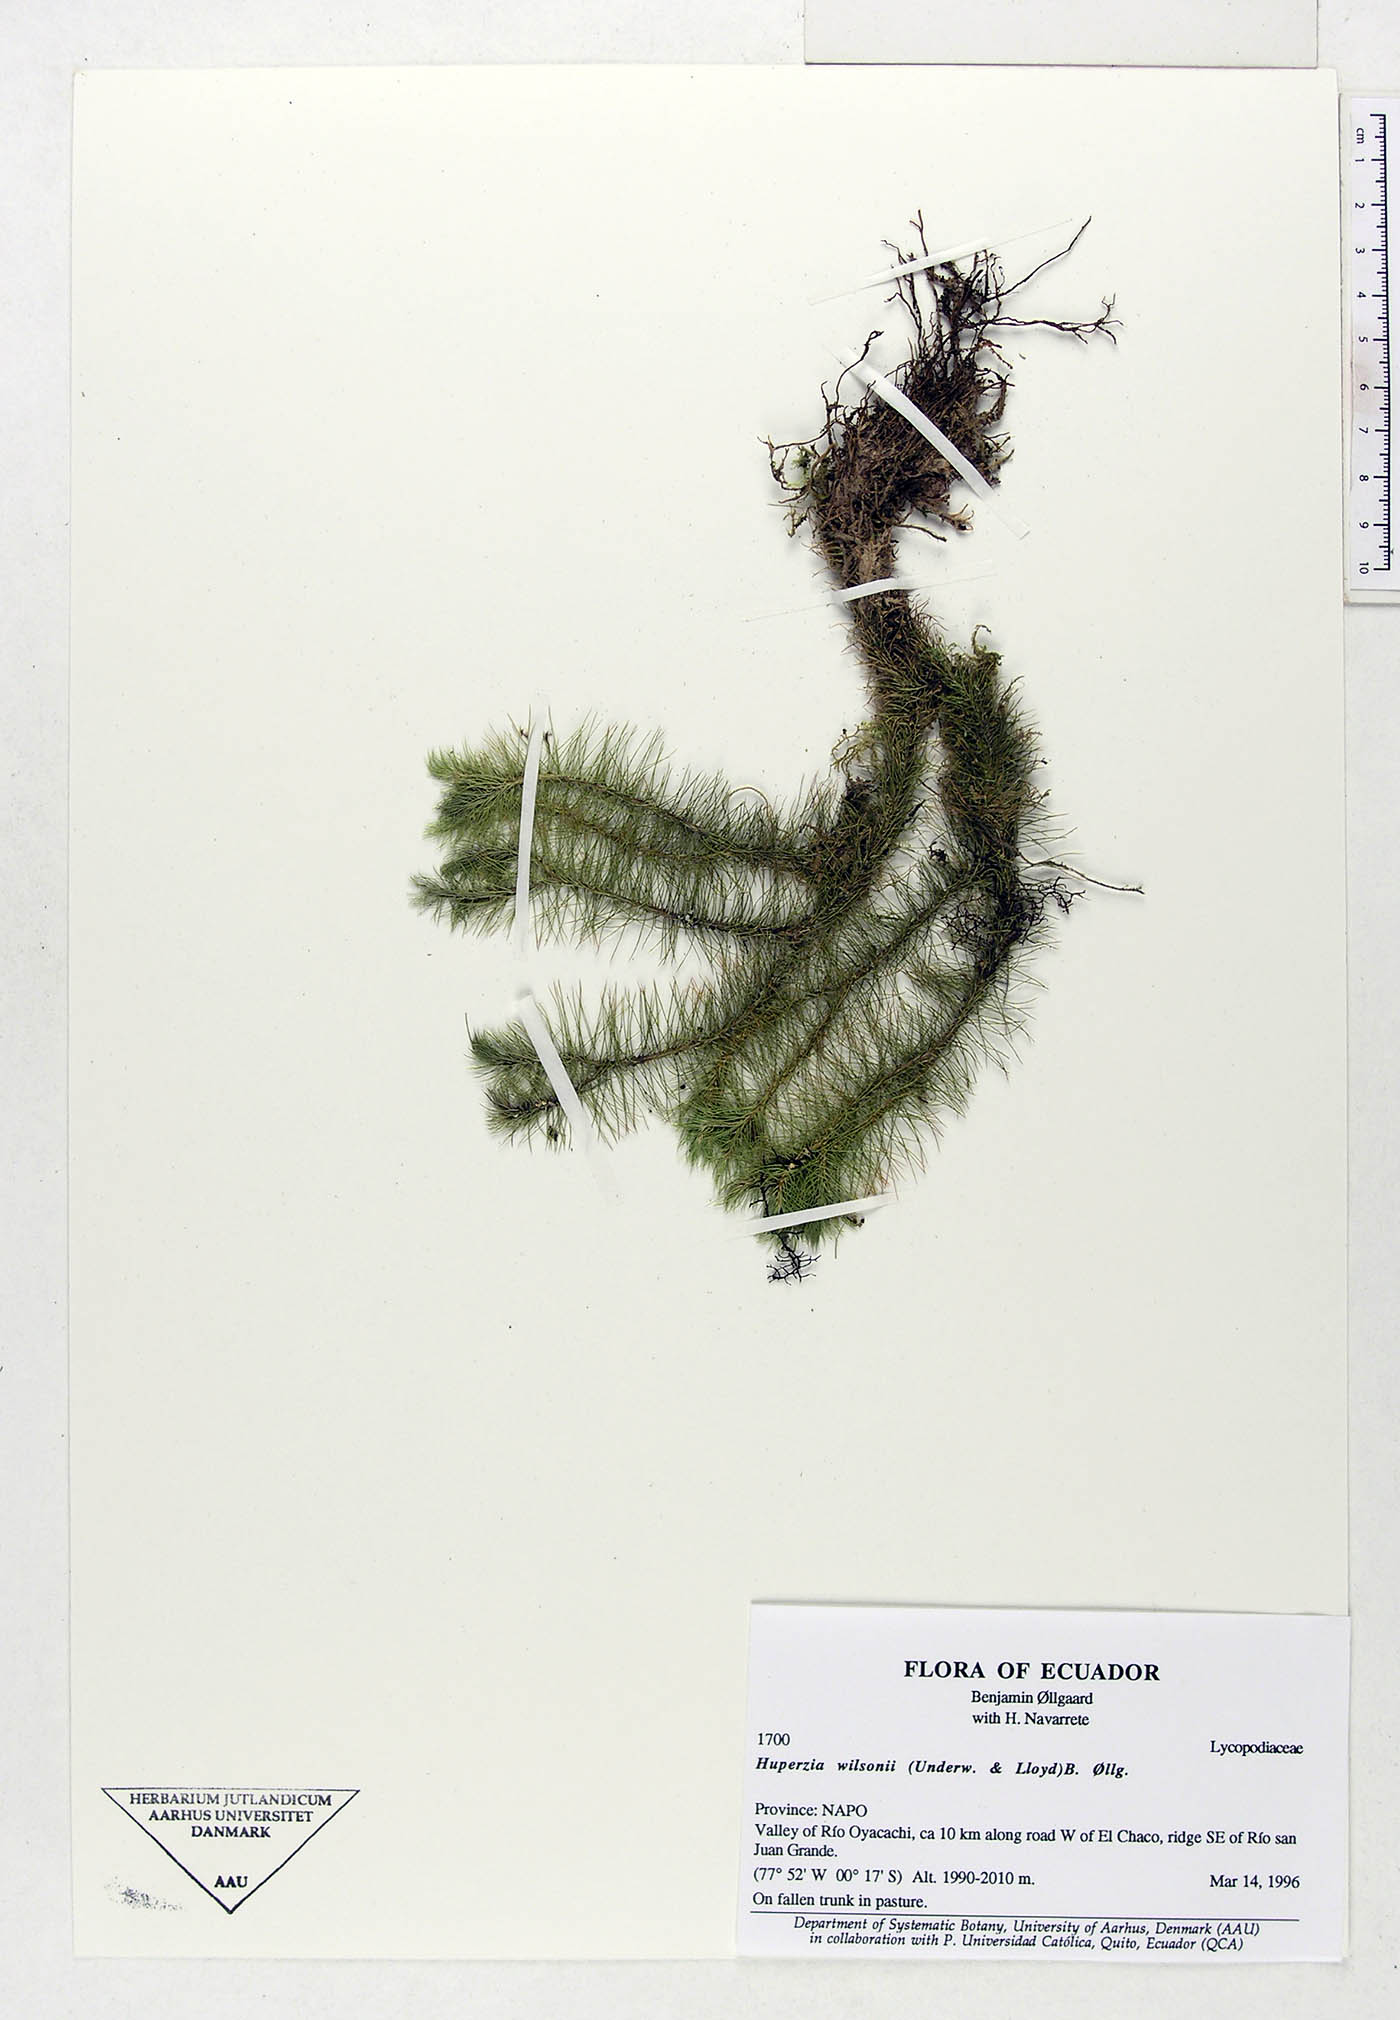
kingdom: Plantae
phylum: Tracheophyta
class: Lycopodiopsida
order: Lycopodiales
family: Lycopodiaceae
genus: Phlegmariurus
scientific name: Phlegmariurus wilsonii
